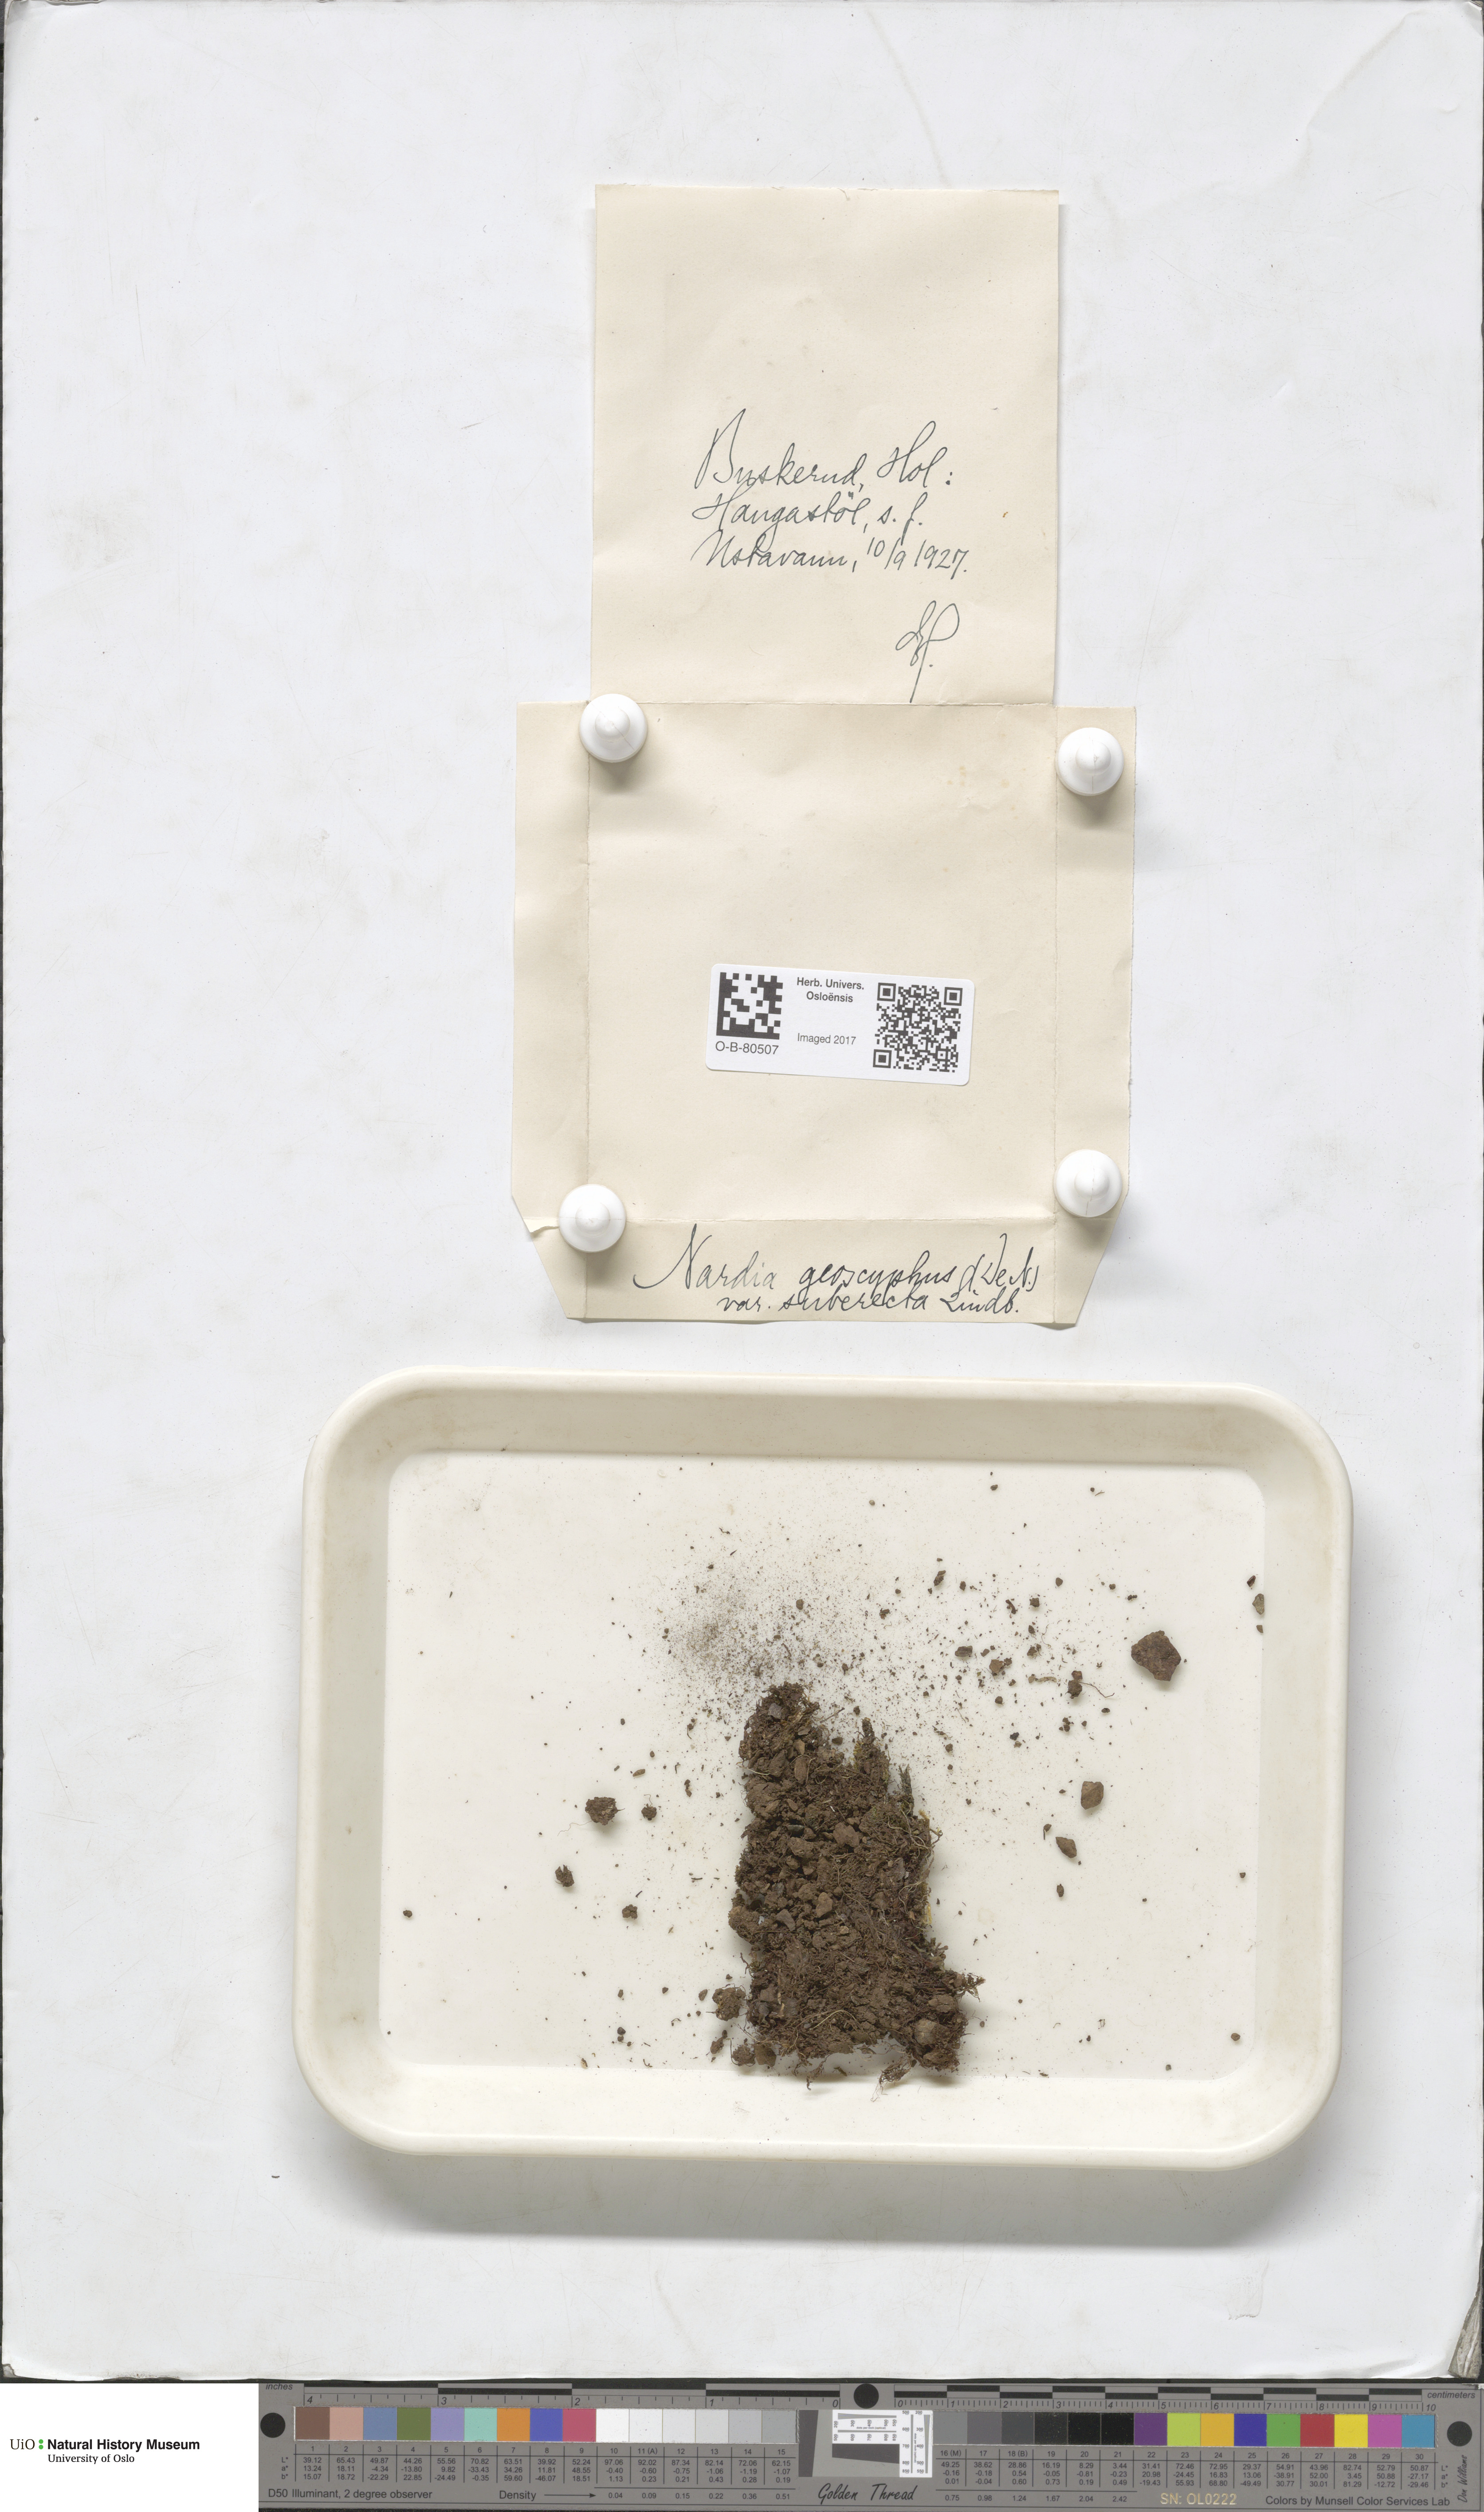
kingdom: Plantae
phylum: Marchantiophyta
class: Jungermanniopsida
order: Jungermanniales
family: Gymnomitriaceae
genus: Nardia
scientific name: Nardia geoscyphus
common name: Earth-cup flapwort
